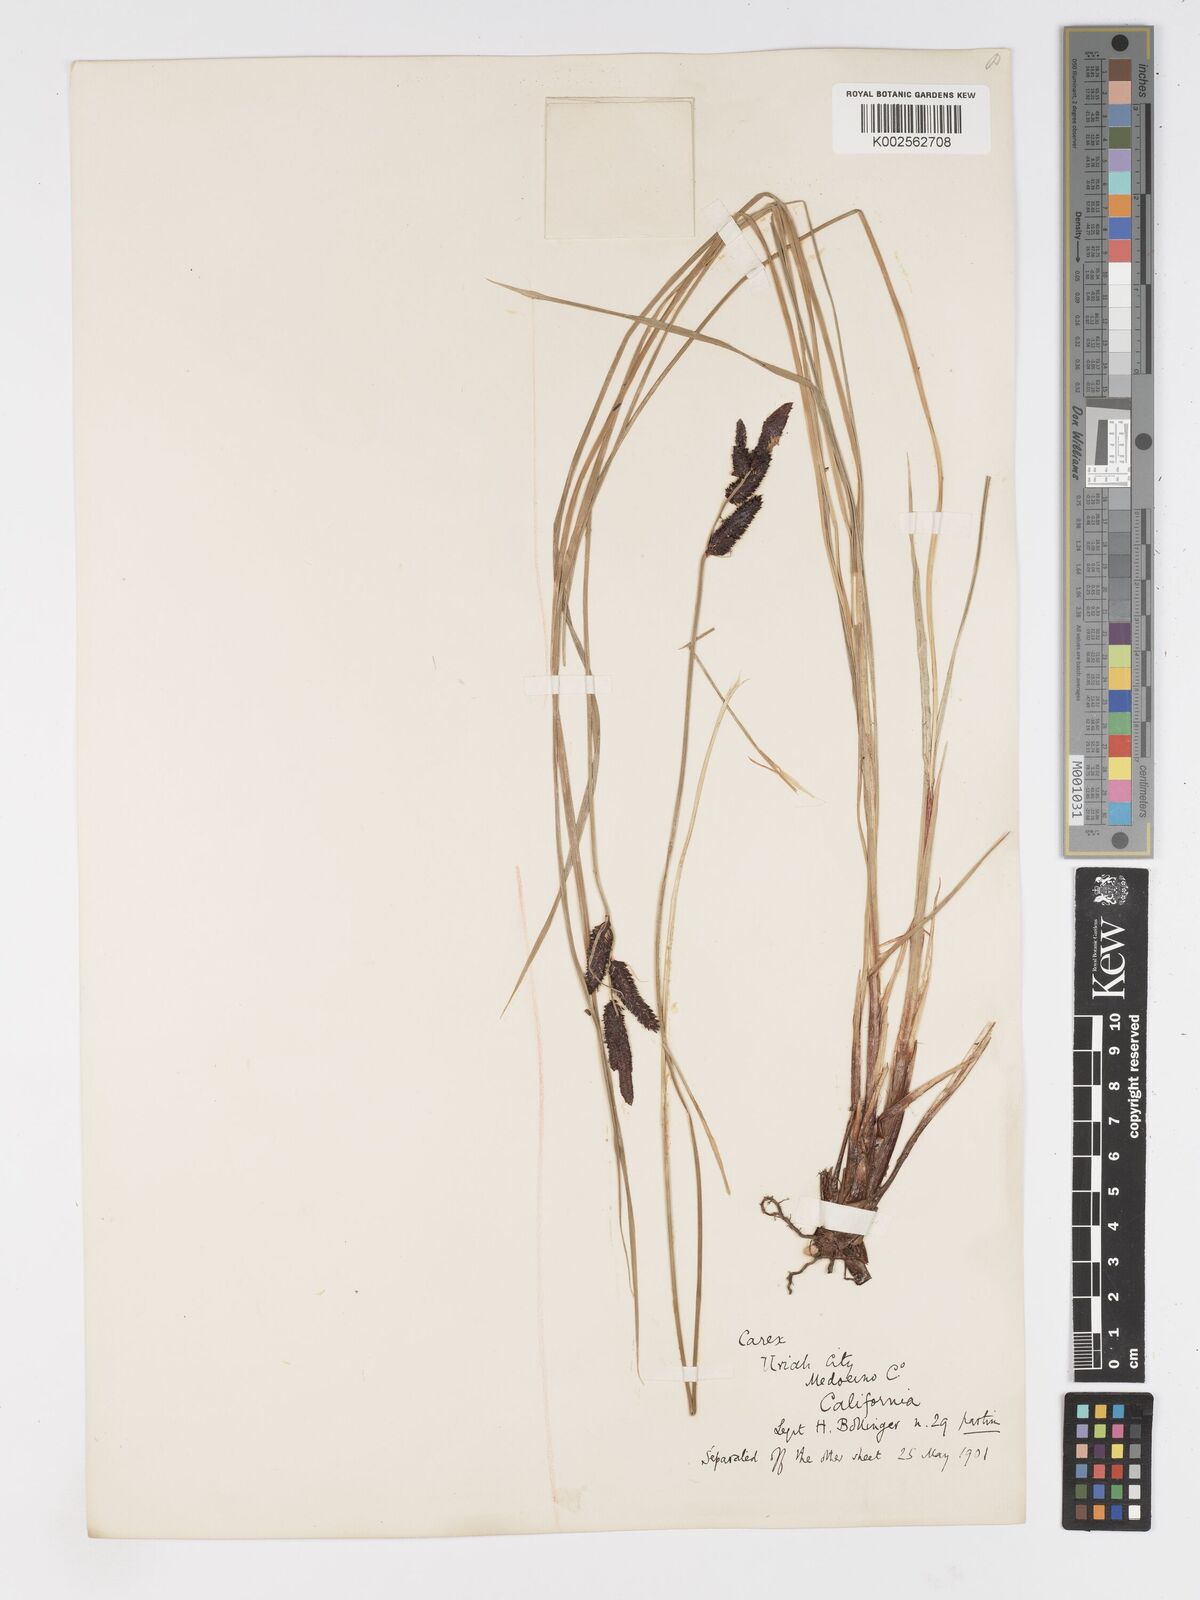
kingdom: Plantae
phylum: Tracheophyta
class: Liliopsida
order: Poales
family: Cyperaceae
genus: Carex
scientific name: Carex nudata
